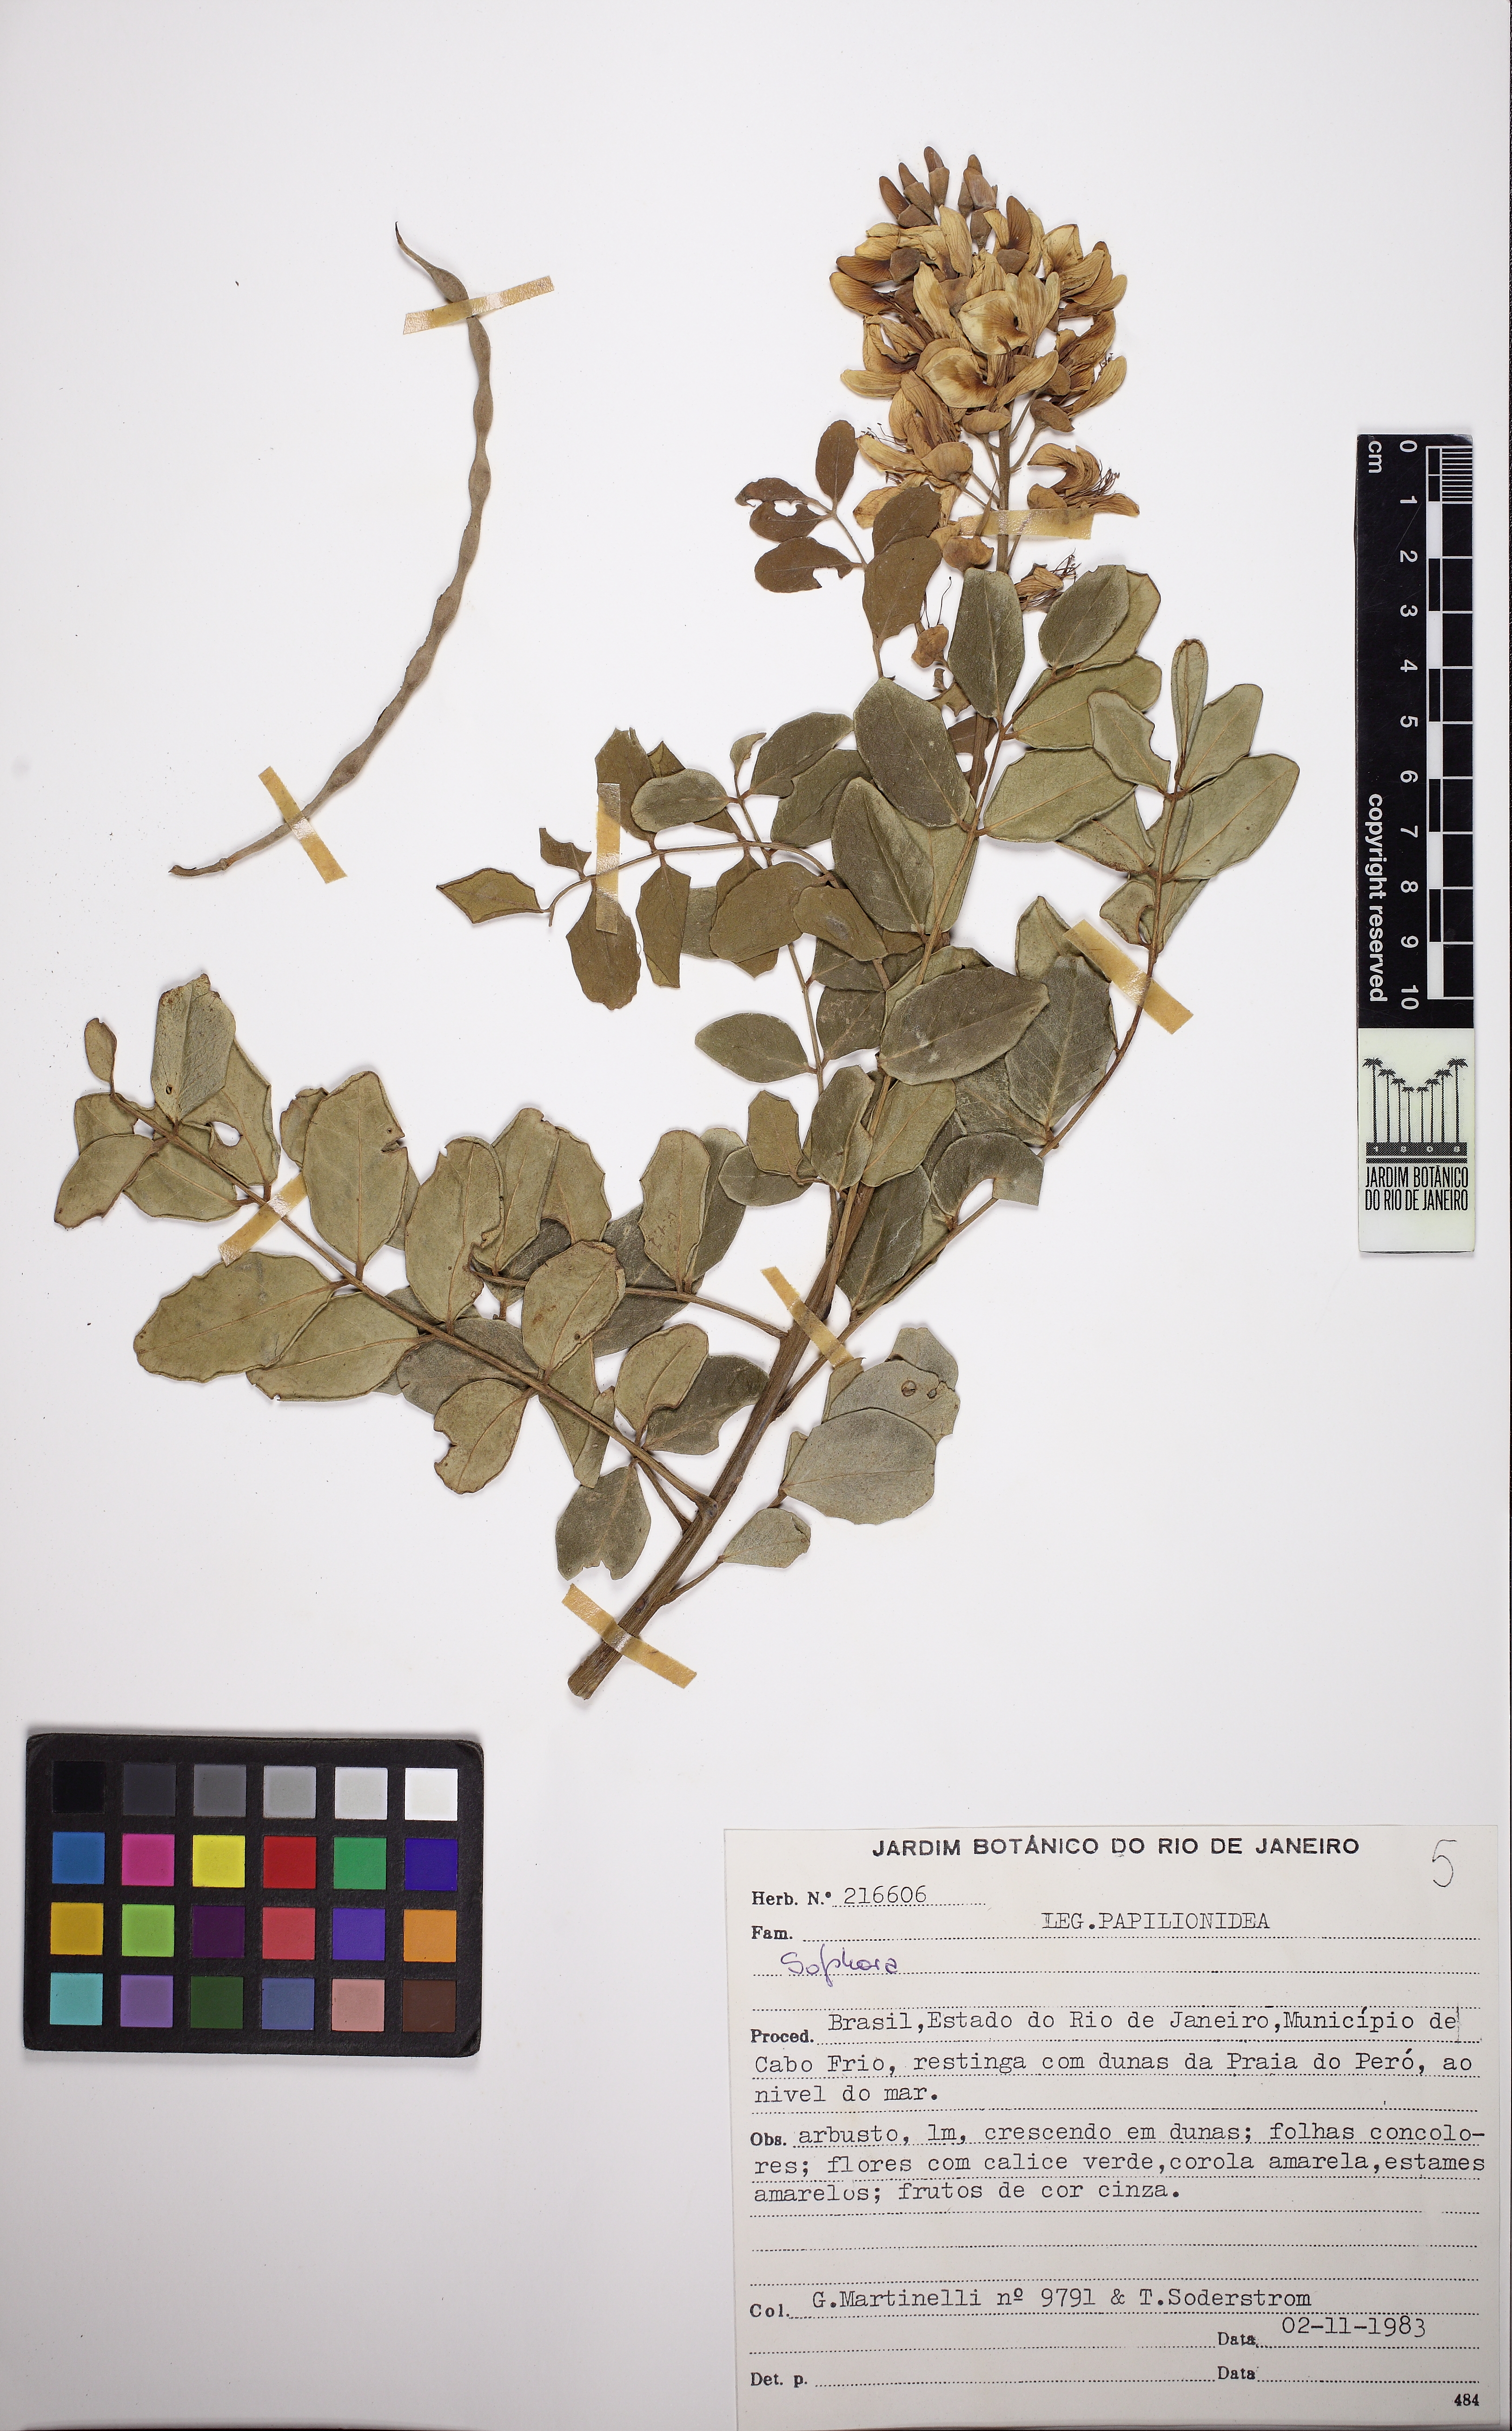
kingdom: Plantae
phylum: Tracheophyta
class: Magnoliopsida
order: Fabales
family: Fabaceae
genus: Sophora
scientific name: Sophora
